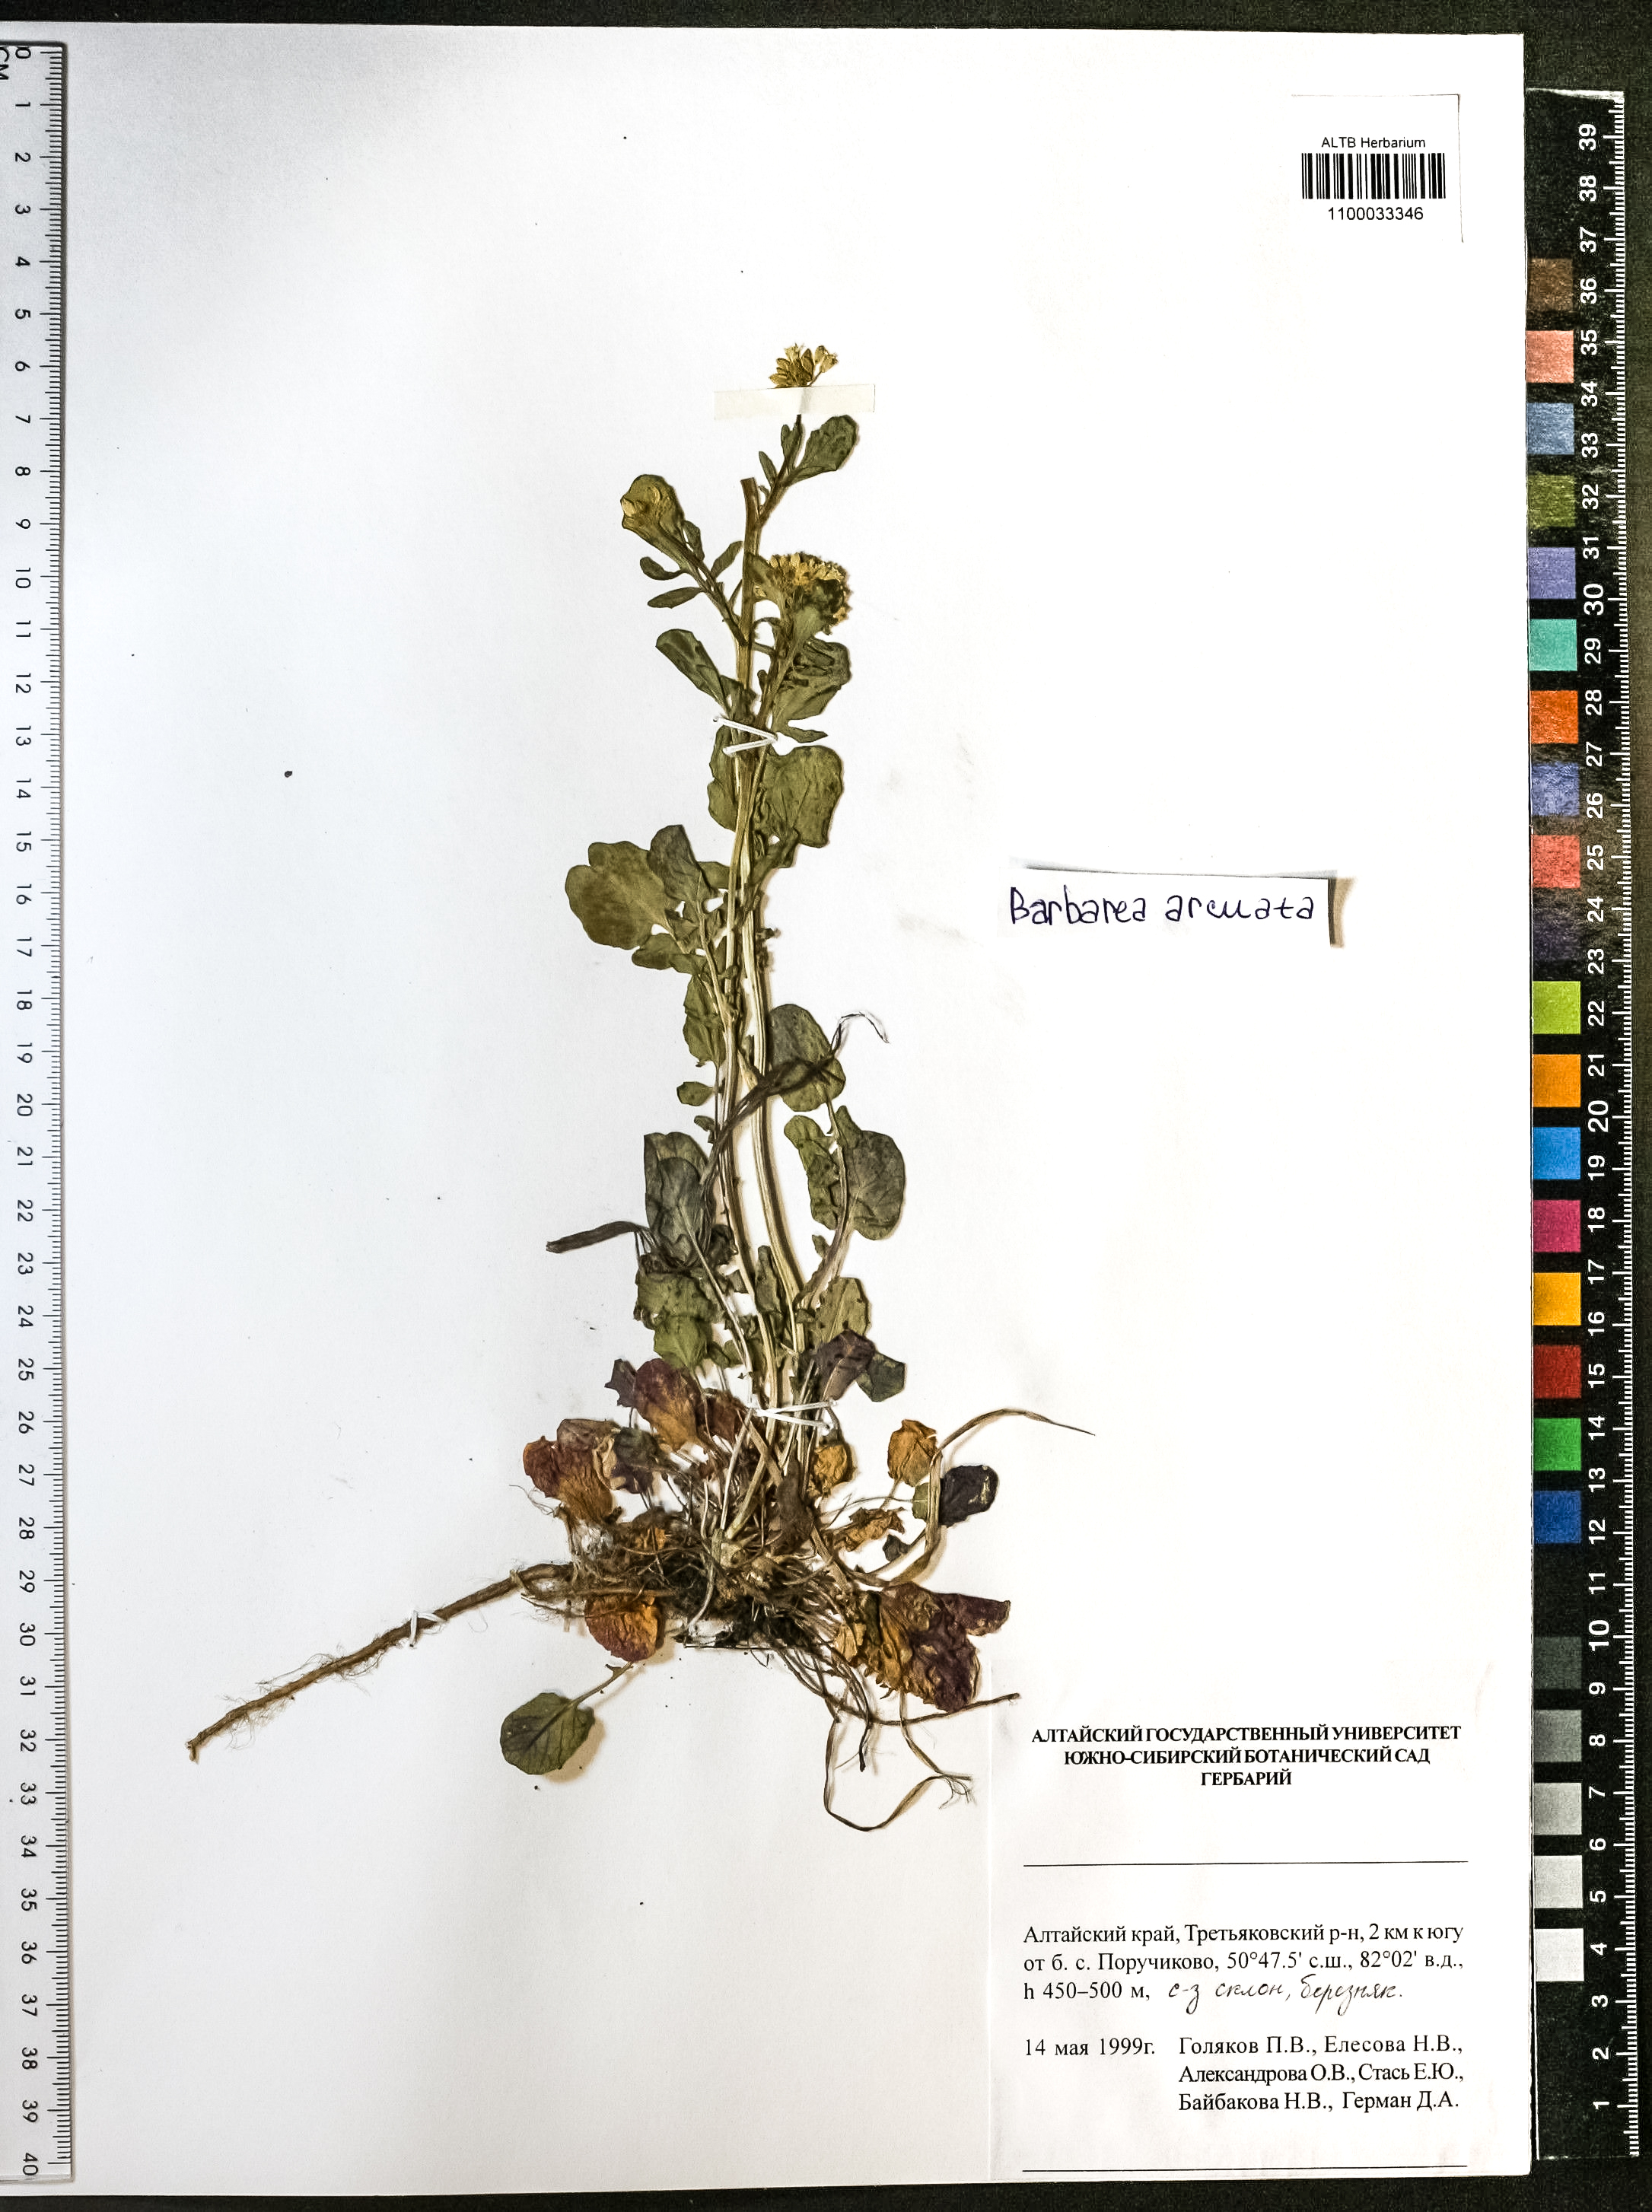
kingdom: Plantae
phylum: Tracheophyta
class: Magnoliopsida
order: Brassicales
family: Brassicaceae
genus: Barbarea
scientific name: Barbarea vulgaris
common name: Cressy-greens
